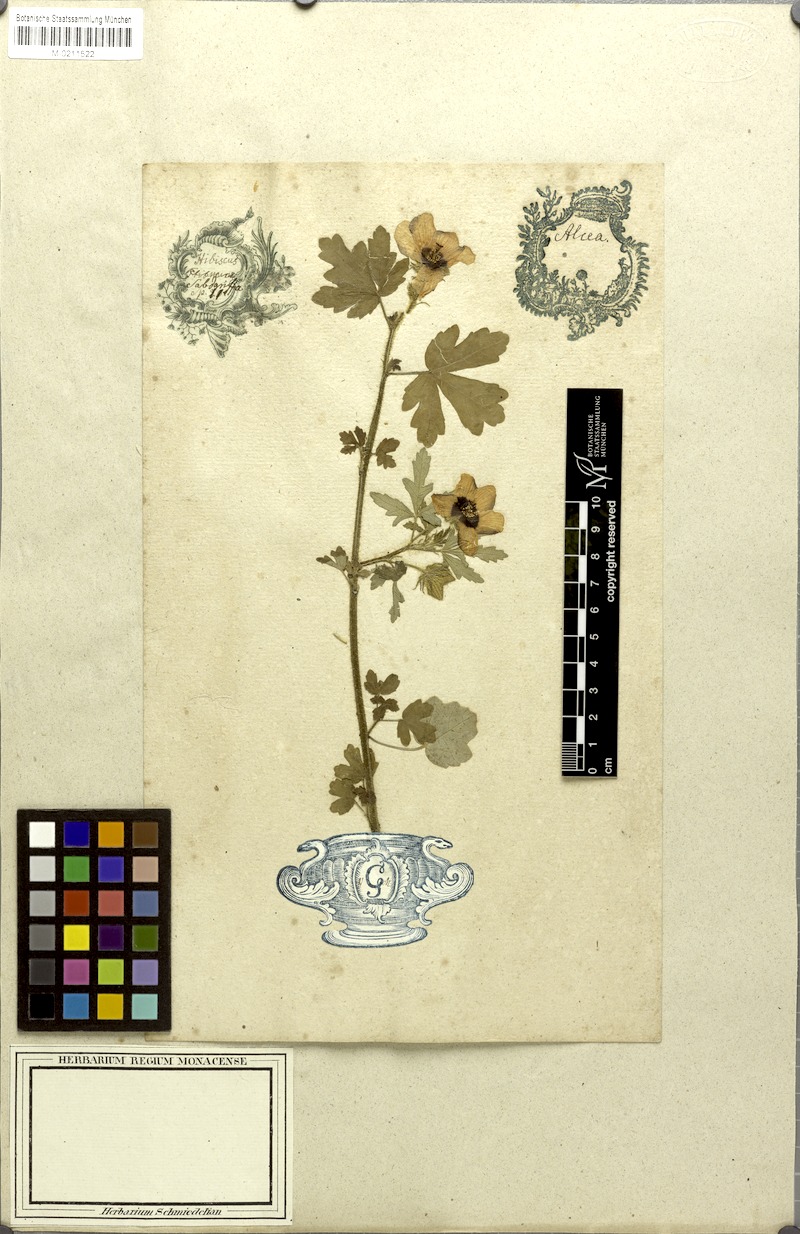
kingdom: Plantae
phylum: Tracheophyta
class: Magnoliopsida
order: Malvales
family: Malvaceae
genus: Hibiscus
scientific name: Hibiscus trionum
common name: Bladder ketmia
